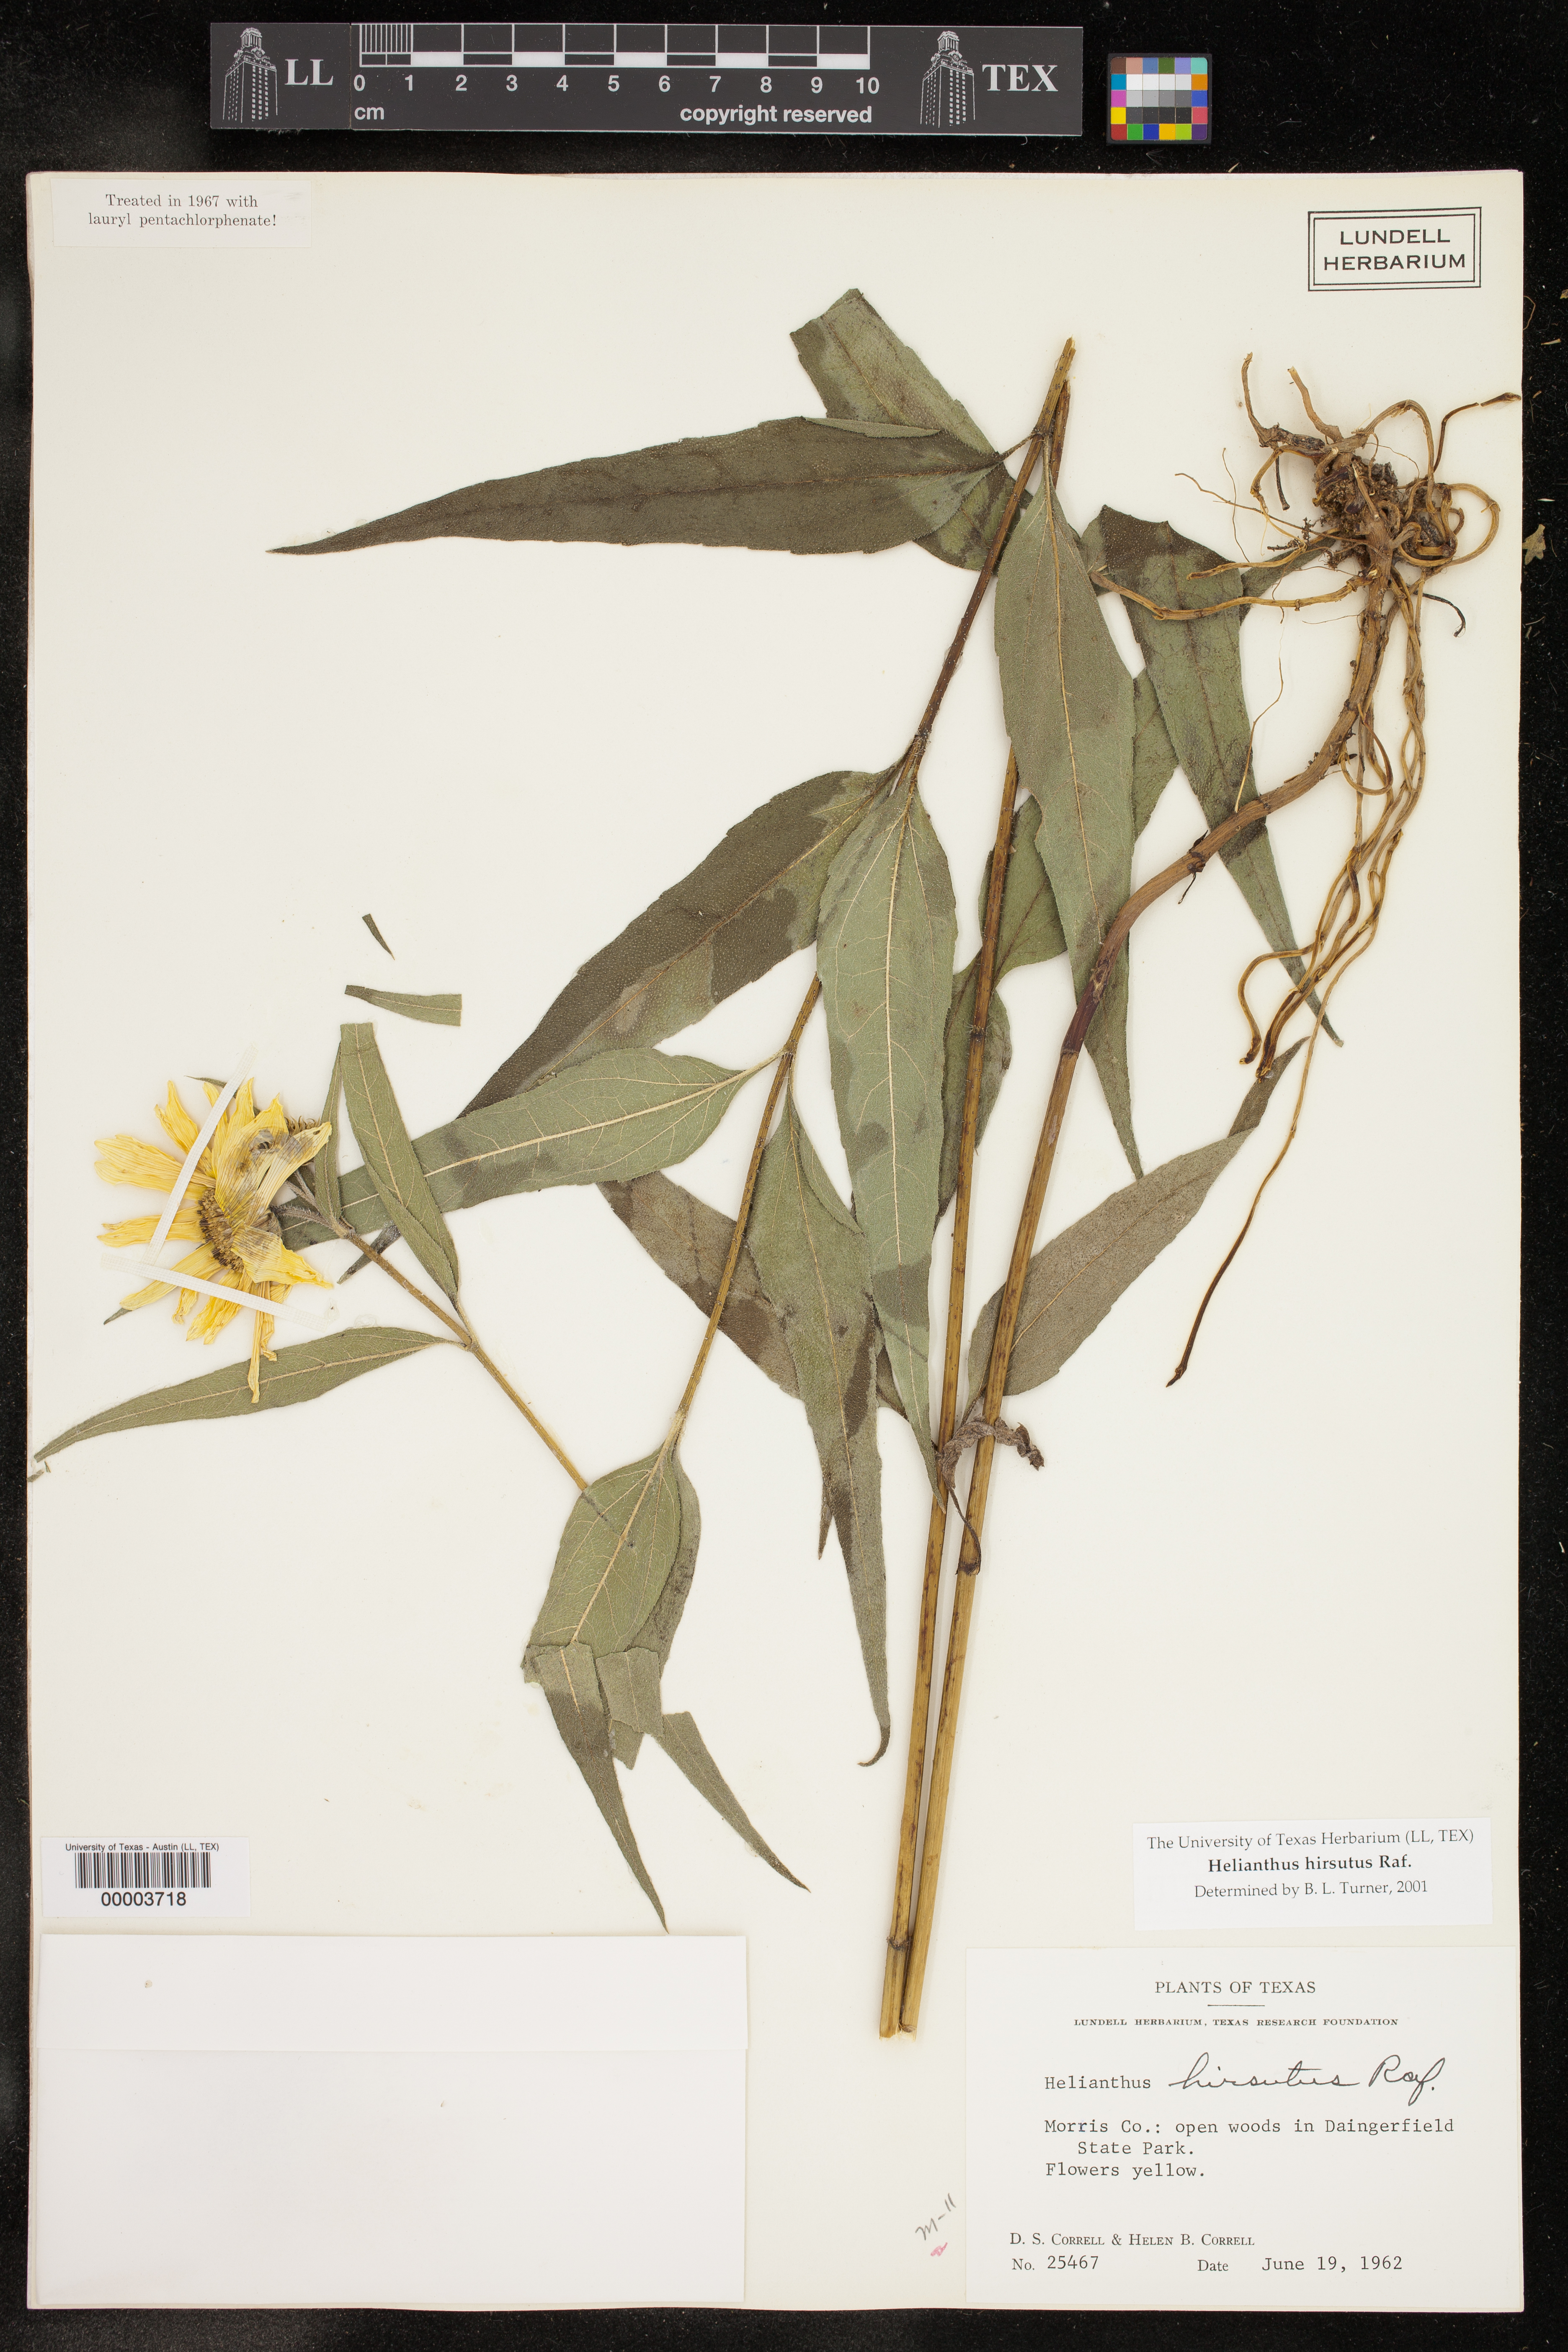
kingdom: Plantae
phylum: Tracheophyta
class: Magnoliopsida
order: Asterales
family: Asteraceae
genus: Helianthus
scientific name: Helianthus hirsutus
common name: Hairy sunflower
